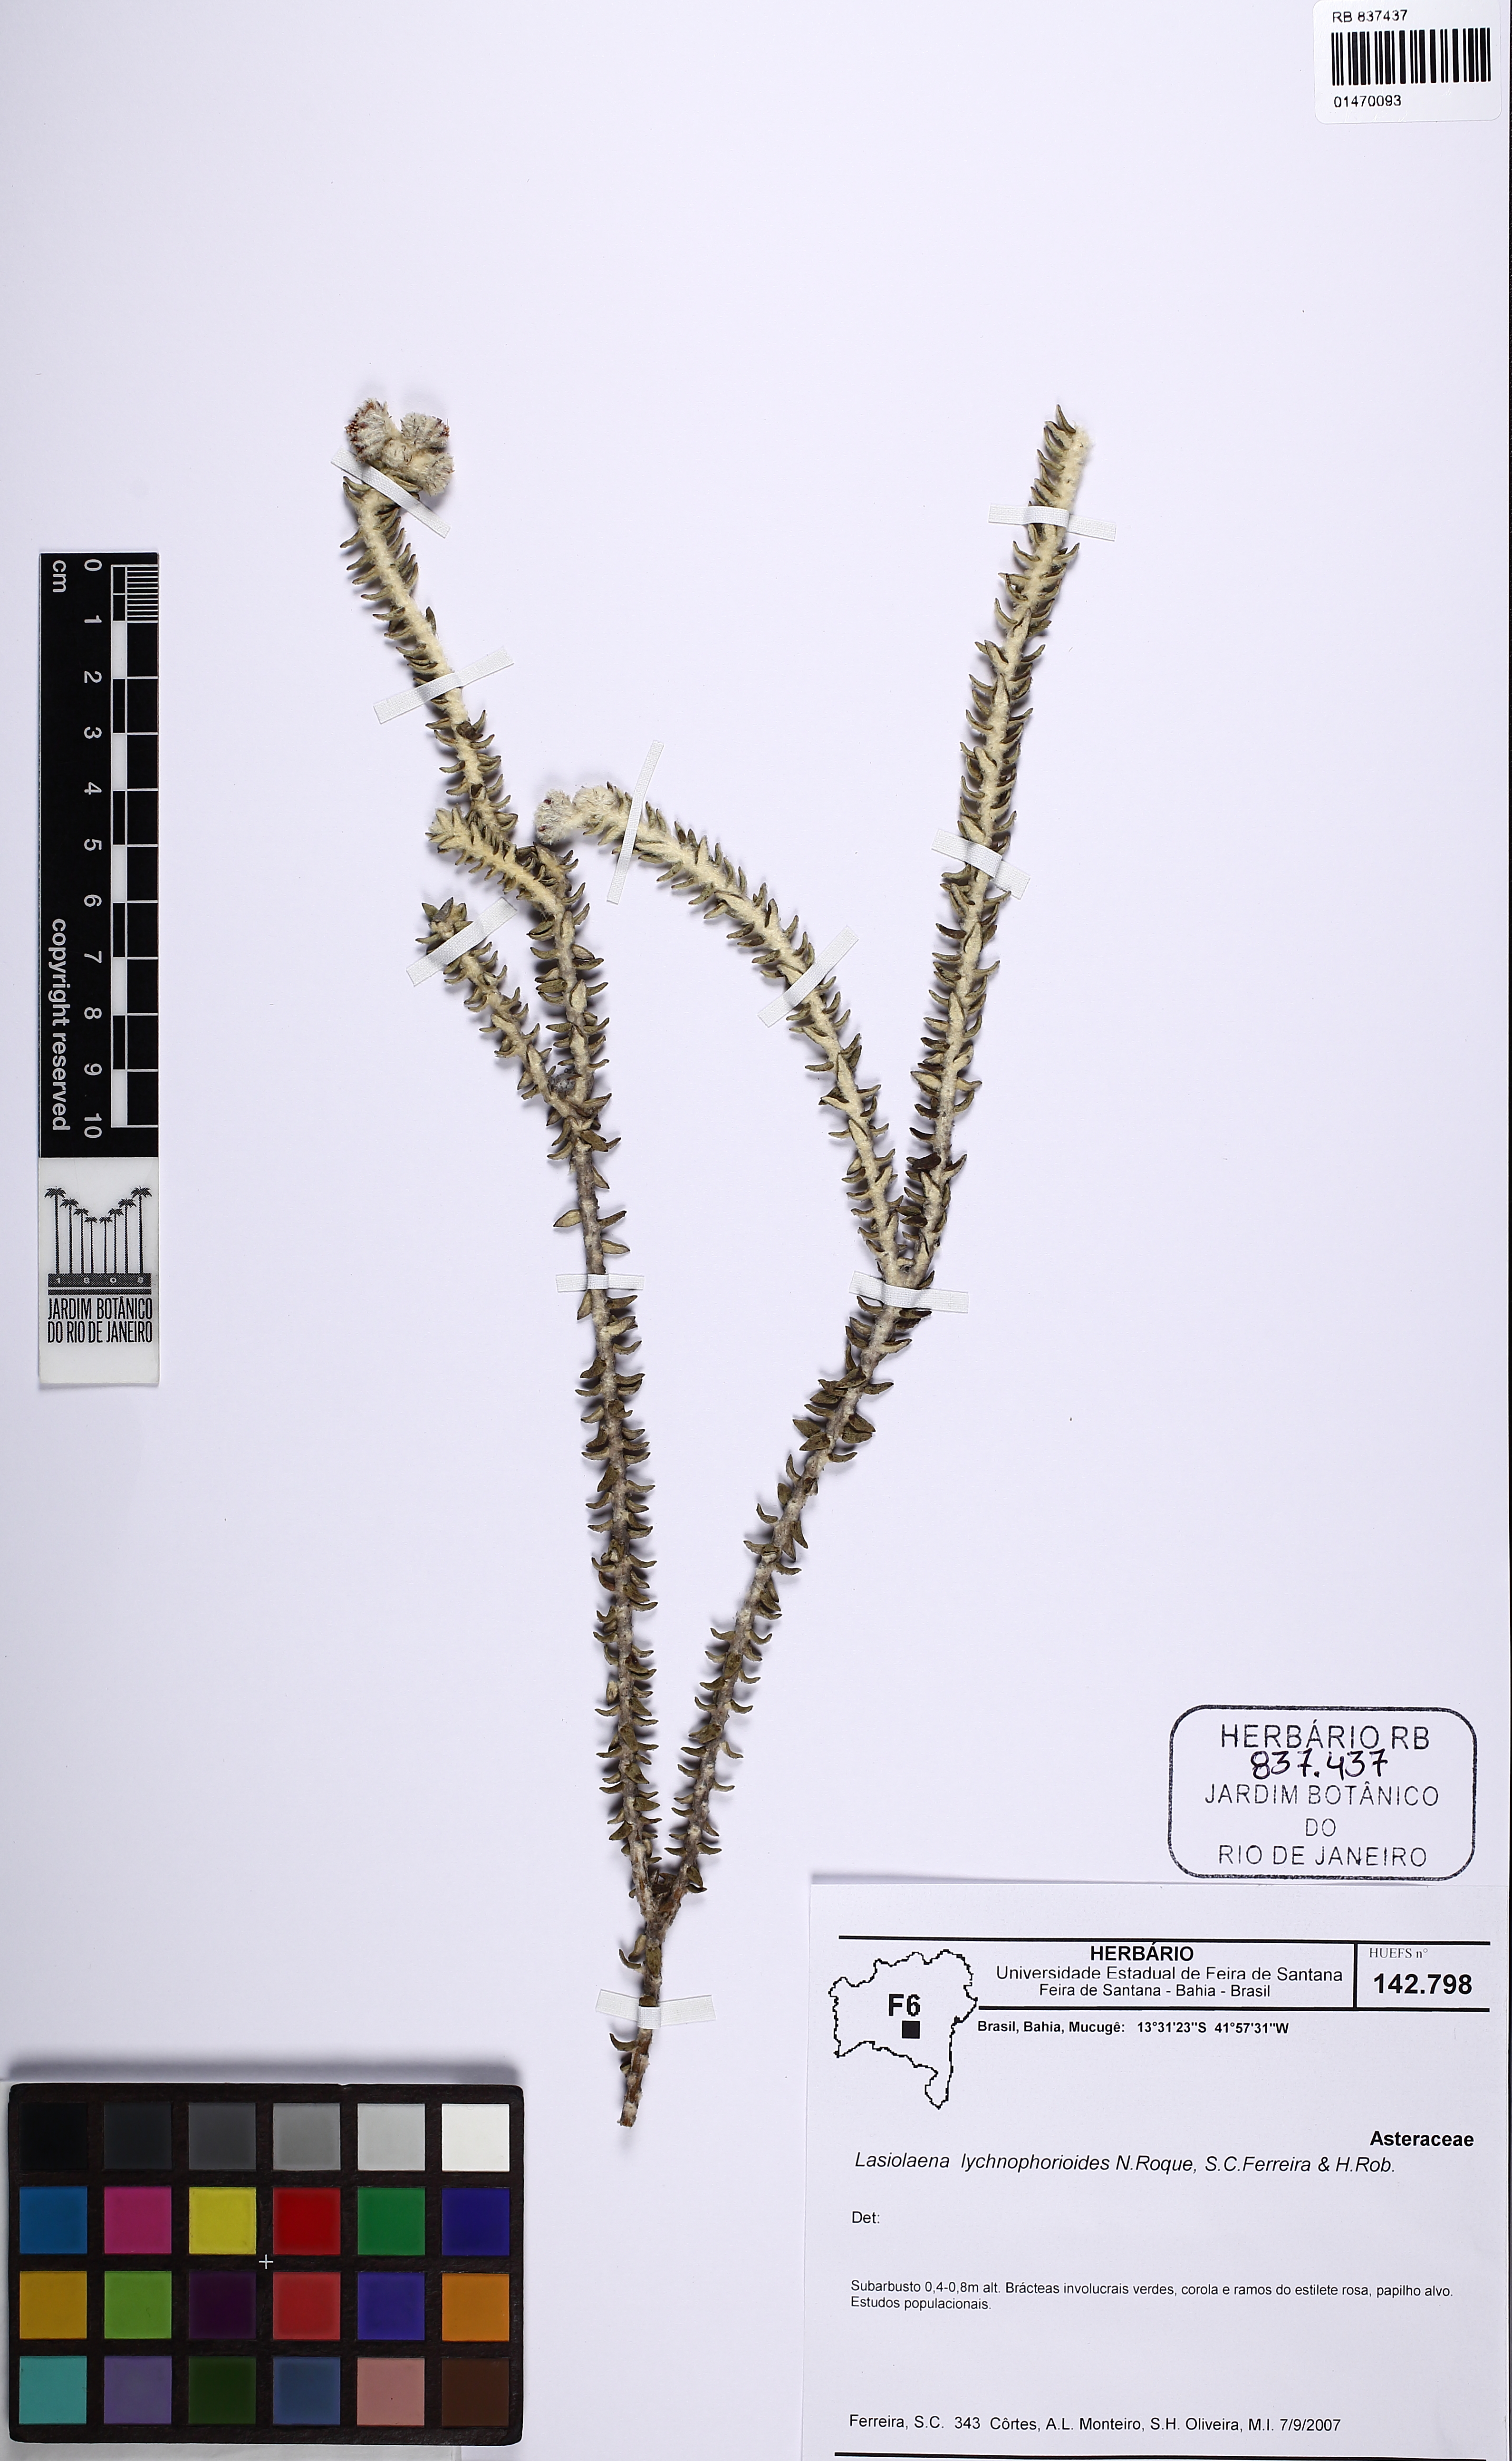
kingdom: Plantae
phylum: Tracheophyta
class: Magnoliopsida
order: Asterales
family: Asteraceae
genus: Lasiolaena
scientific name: Lasiolaena lychnophorioides
